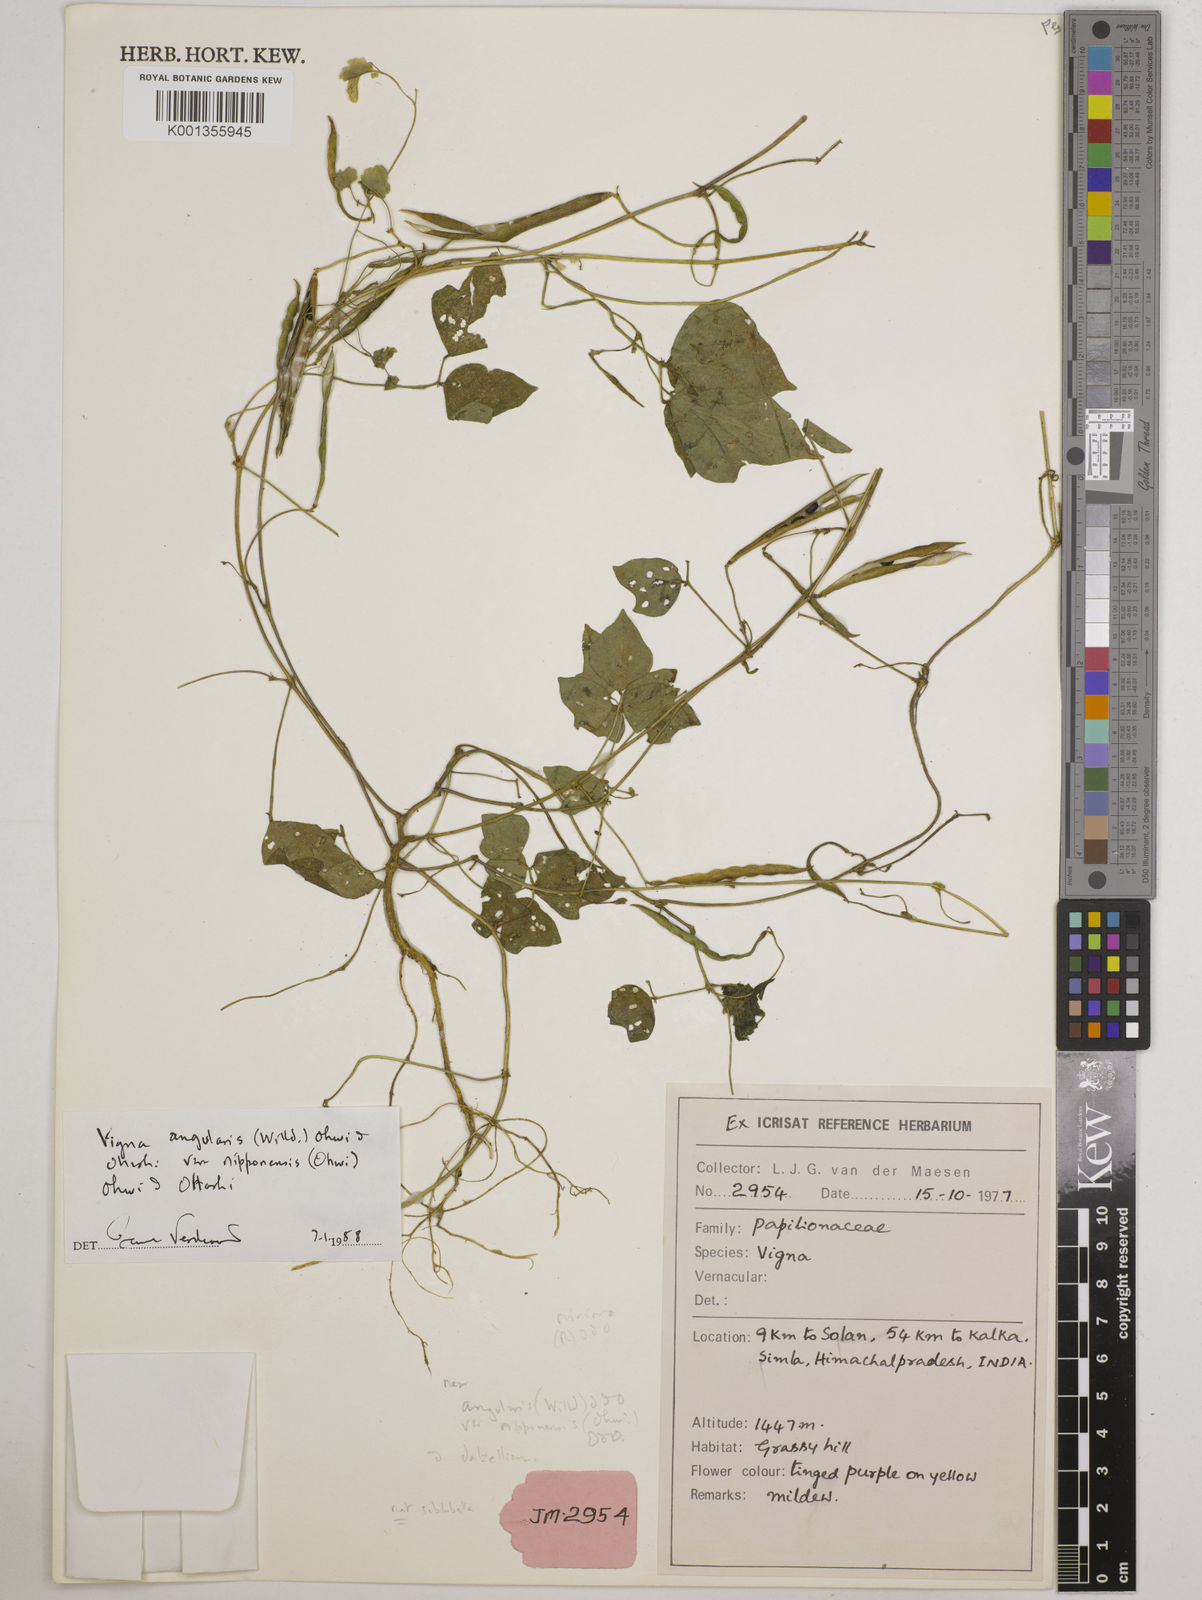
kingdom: Plantae
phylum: Tracheophyta
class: Magnoliopsida
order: Fabales
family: Fabaceae
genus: Vigna
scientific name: Vigna
